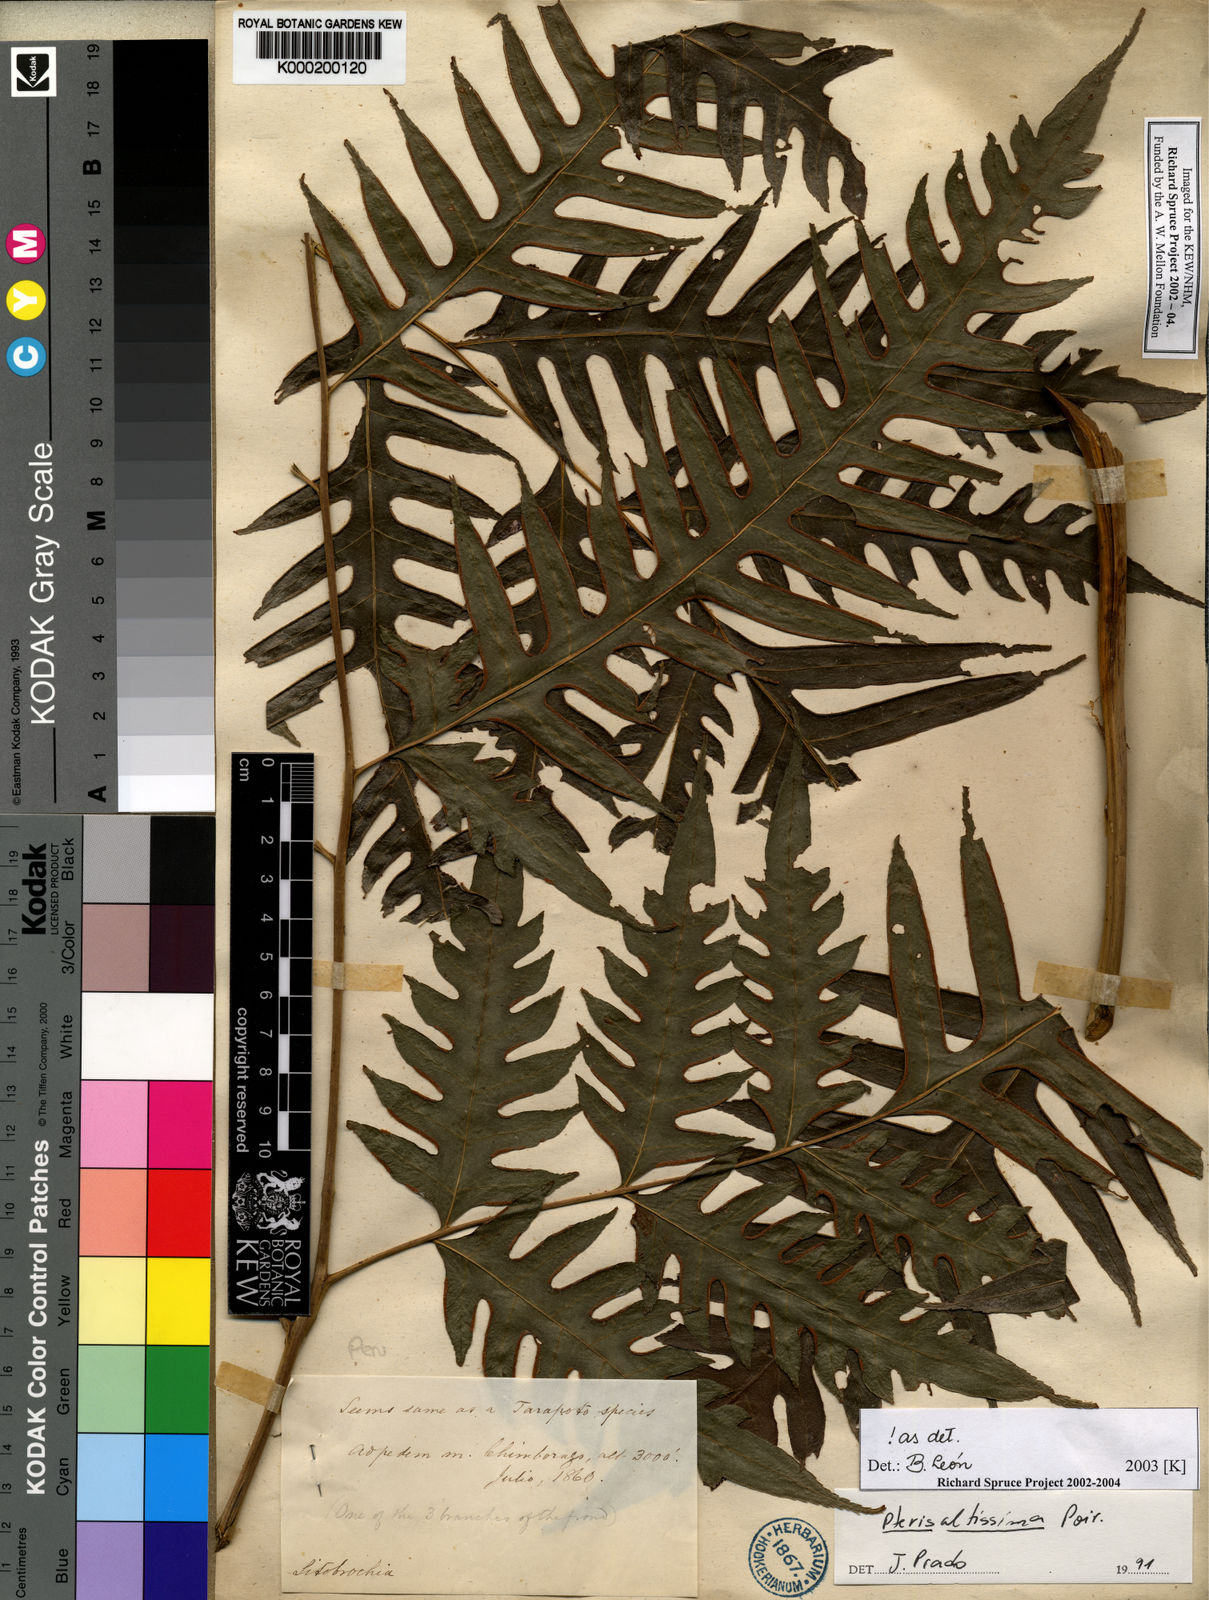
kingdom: Plantae
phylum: Tracheophyta
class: Polypodiopsida
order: Polypodiales
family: Pteridaceae
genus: Pteris
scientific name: Pteris altissima
